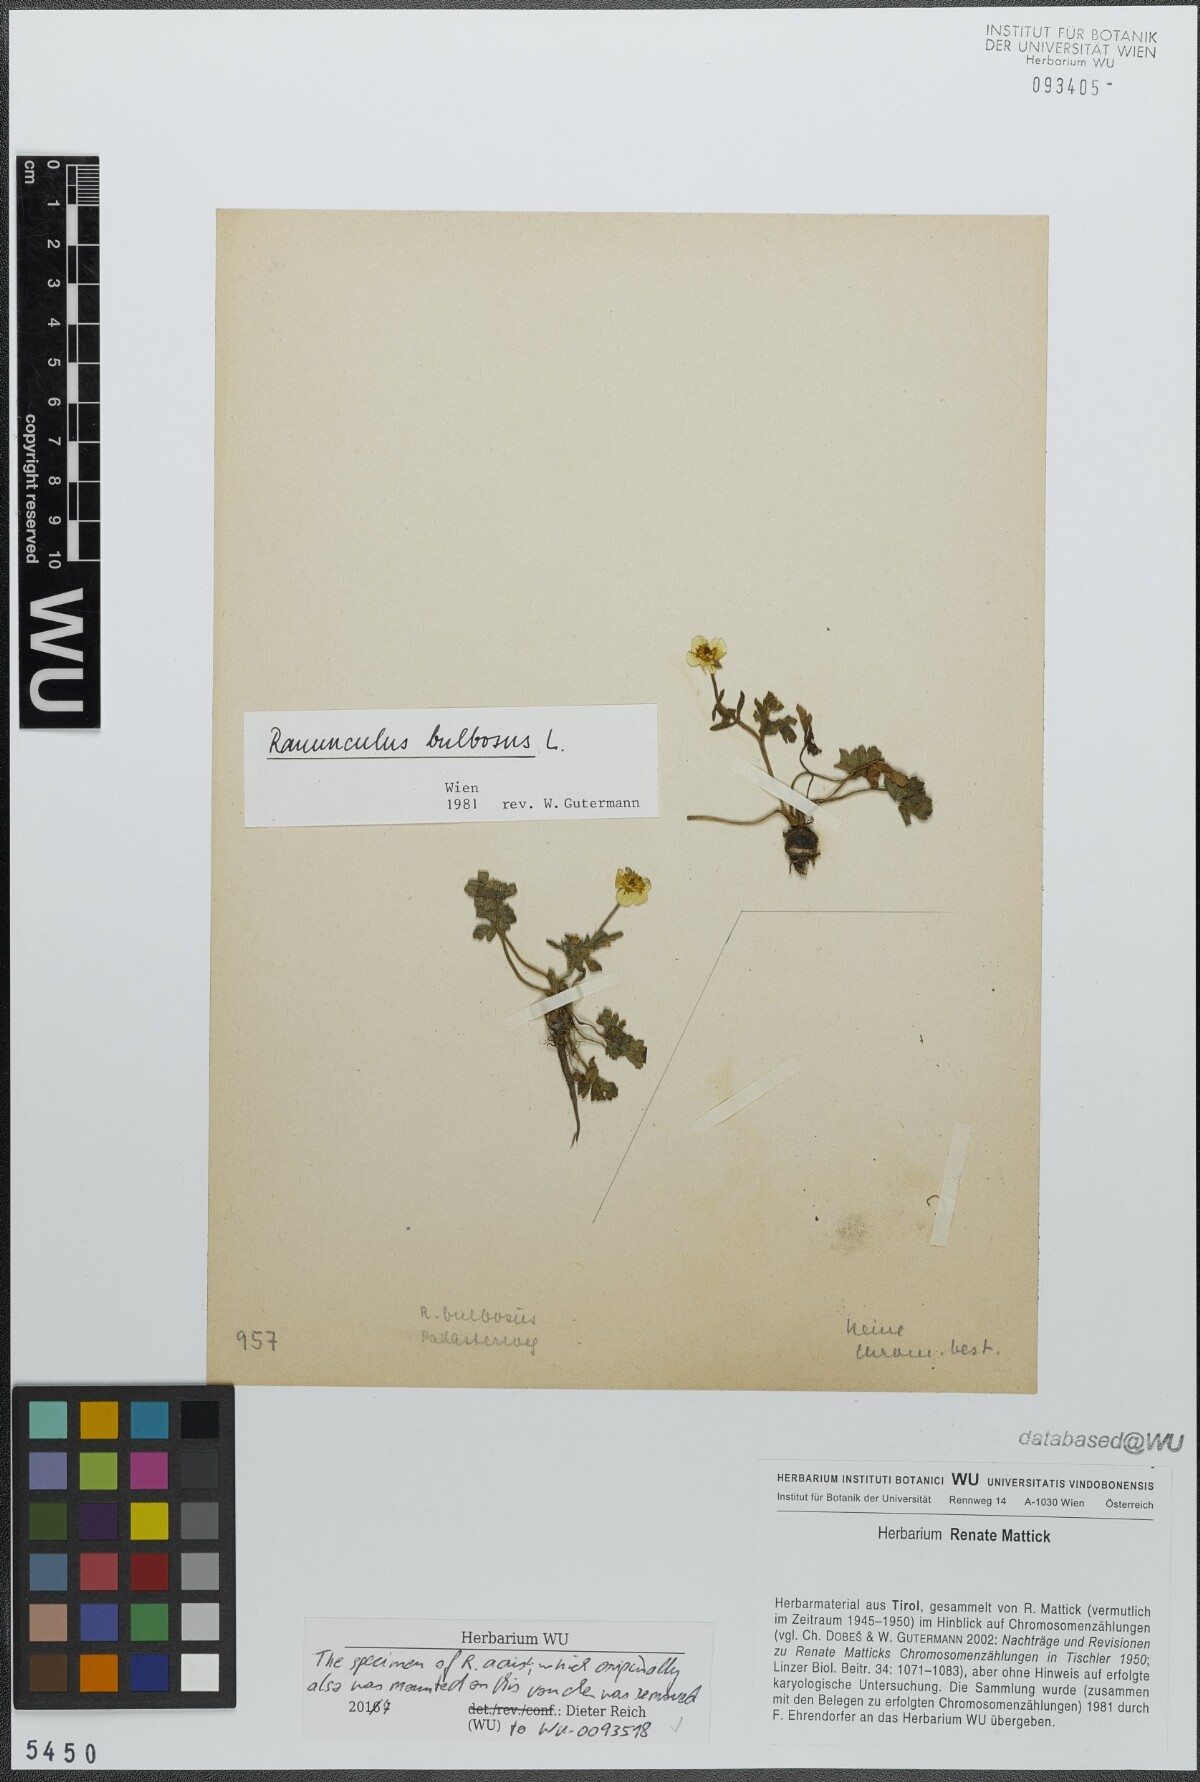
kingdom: Plantae
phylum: Tracheophyta
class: Magnoliopsida
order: Ranunculales
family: Ranunculaceae
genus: Ranunculus
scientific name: Ranunculus bulbosus
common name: Bulbous buttercup
